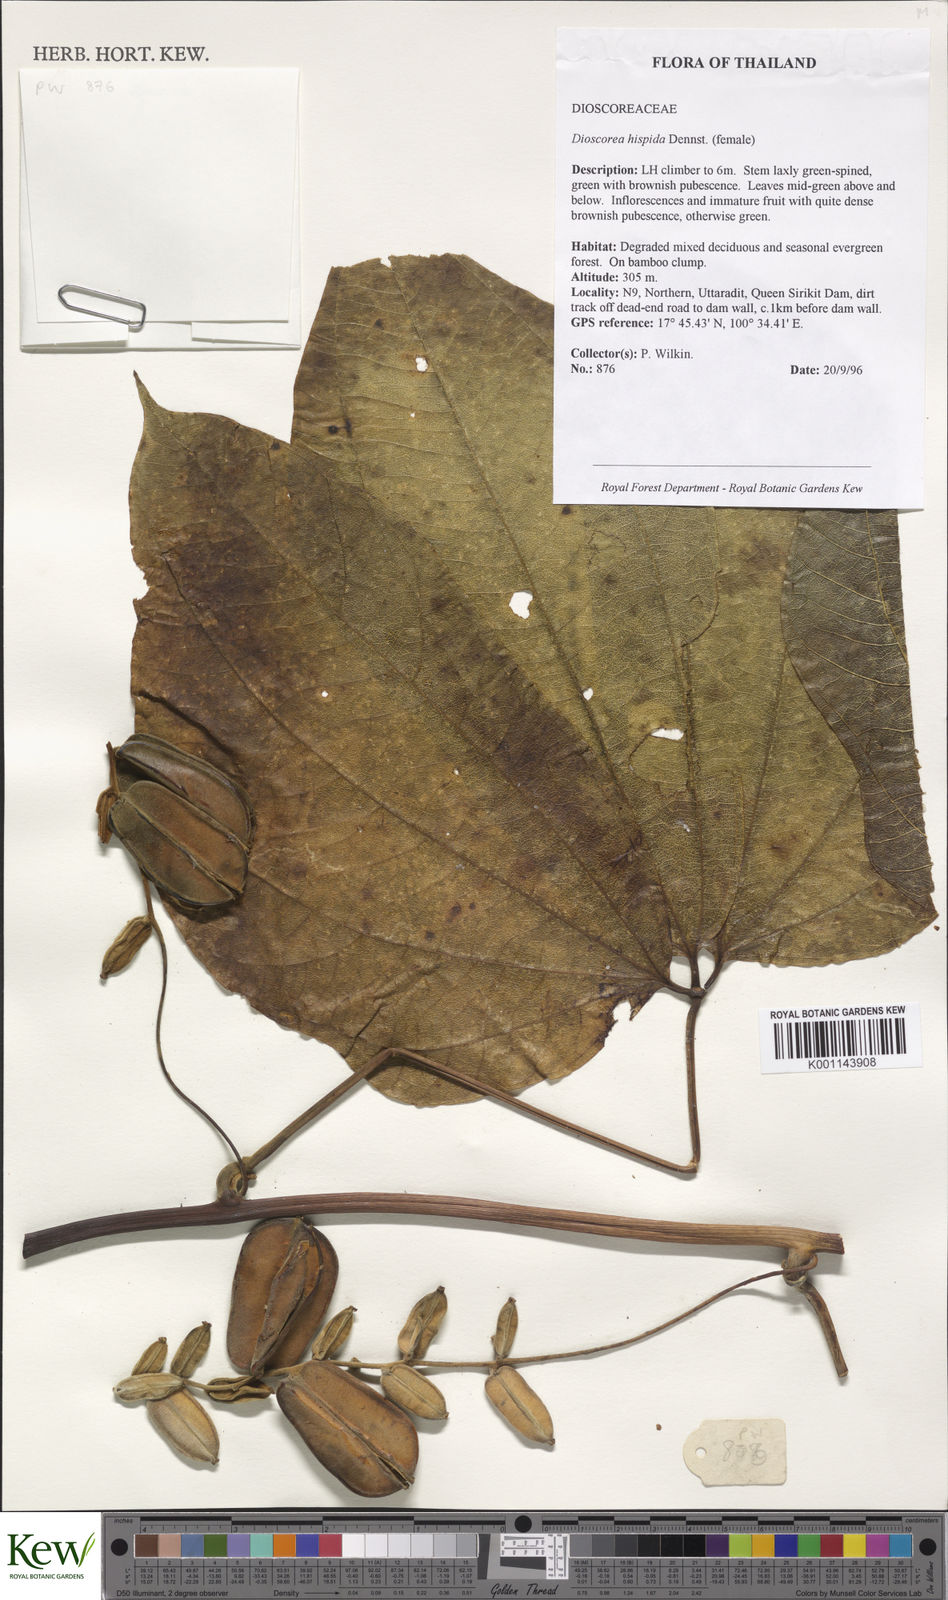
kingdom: Plantae
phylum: Tracheophyta
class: Liliopsida
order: Dioscoreales
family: Dioscoreaceae
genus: Dioscorea
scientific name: Dioscorea
